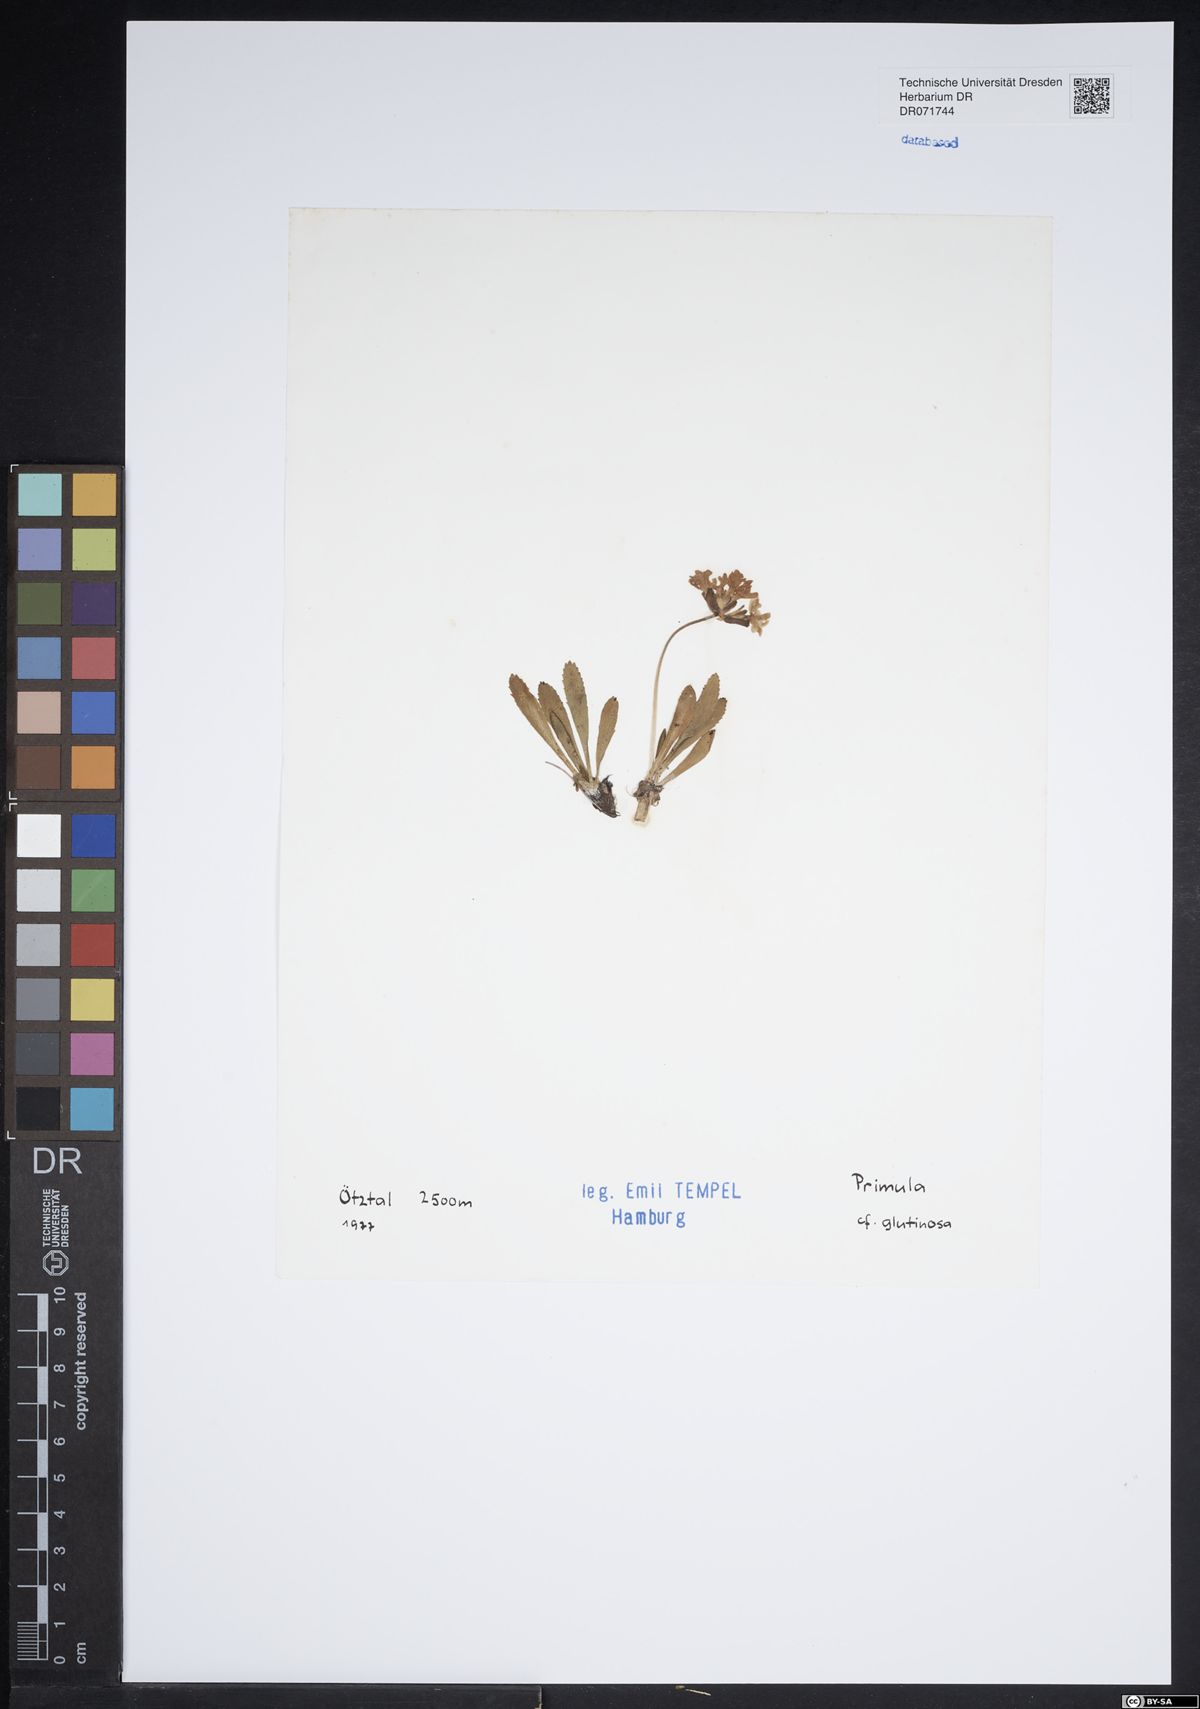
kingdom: Plantae
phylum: Tracheophyta
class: Magnoliopsida
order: Ericales
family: Primulaceae
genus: Primula
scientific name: Primula glutinosa
